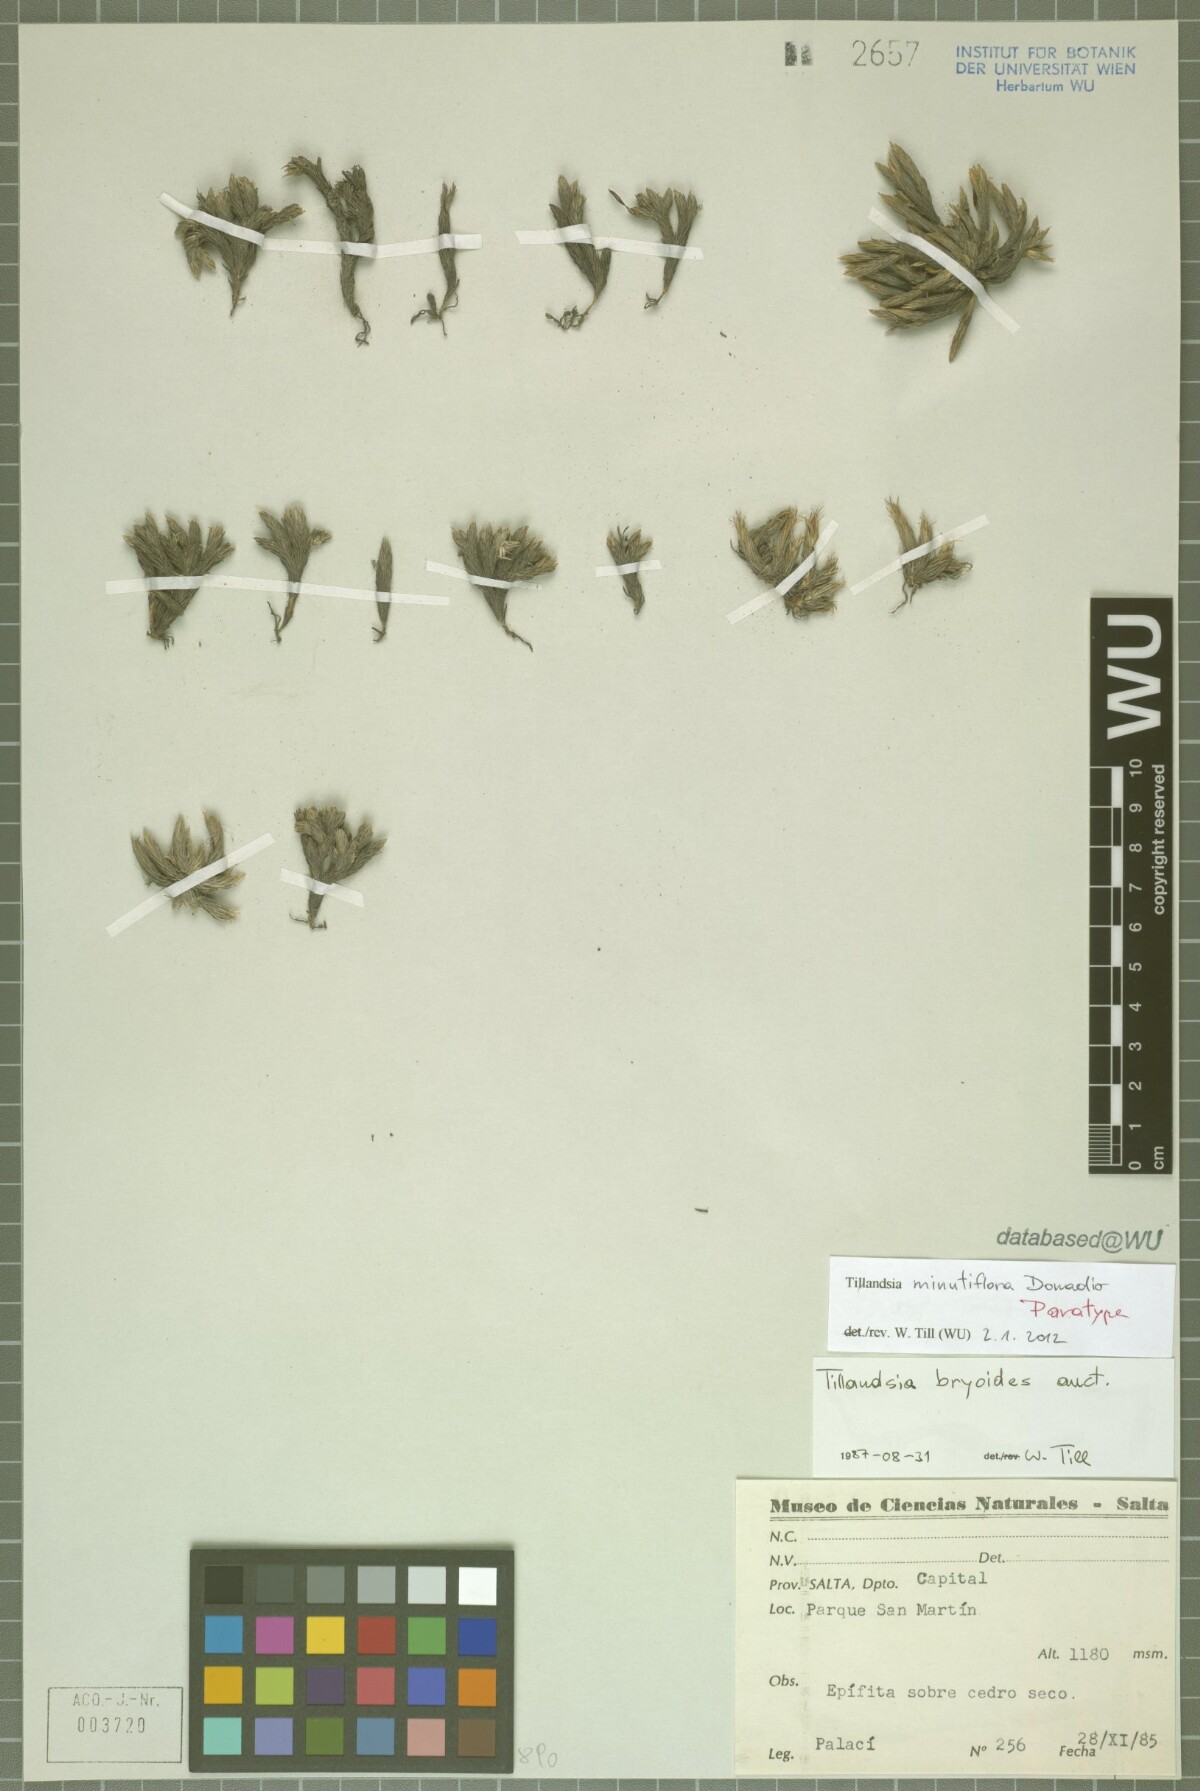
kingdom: Plantae
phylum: Tracheophyta
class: Liliopsida
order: Poales
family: Bromeliaceae
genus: Tillandsia
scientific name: Tillandsia minutiflora
